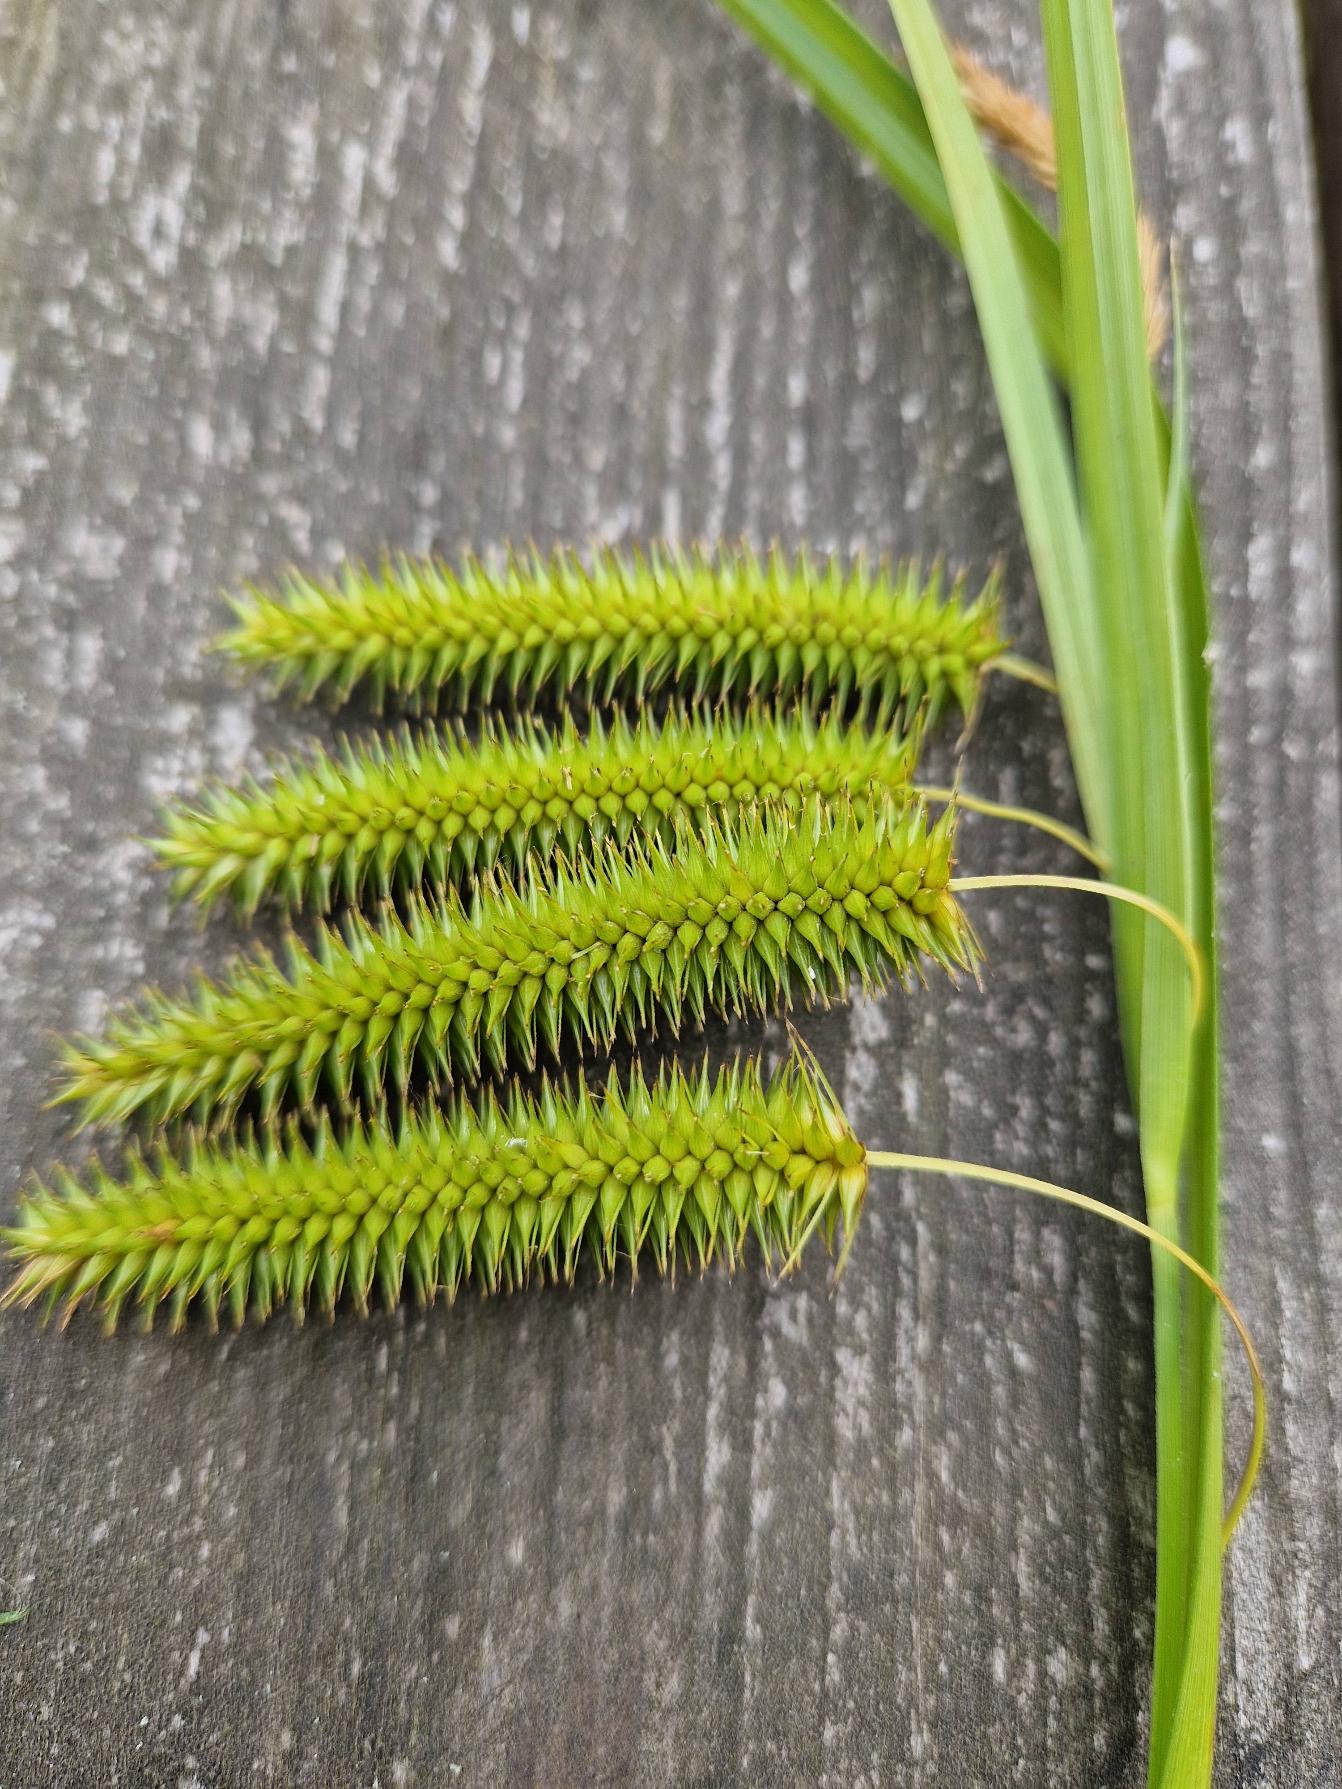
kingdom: Plantae
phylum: Tracheophyta
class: Liliopsida
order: Poales
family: Cyperaceae
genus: Carex
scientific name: Carex pseudocyperus
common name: Knippe-star
